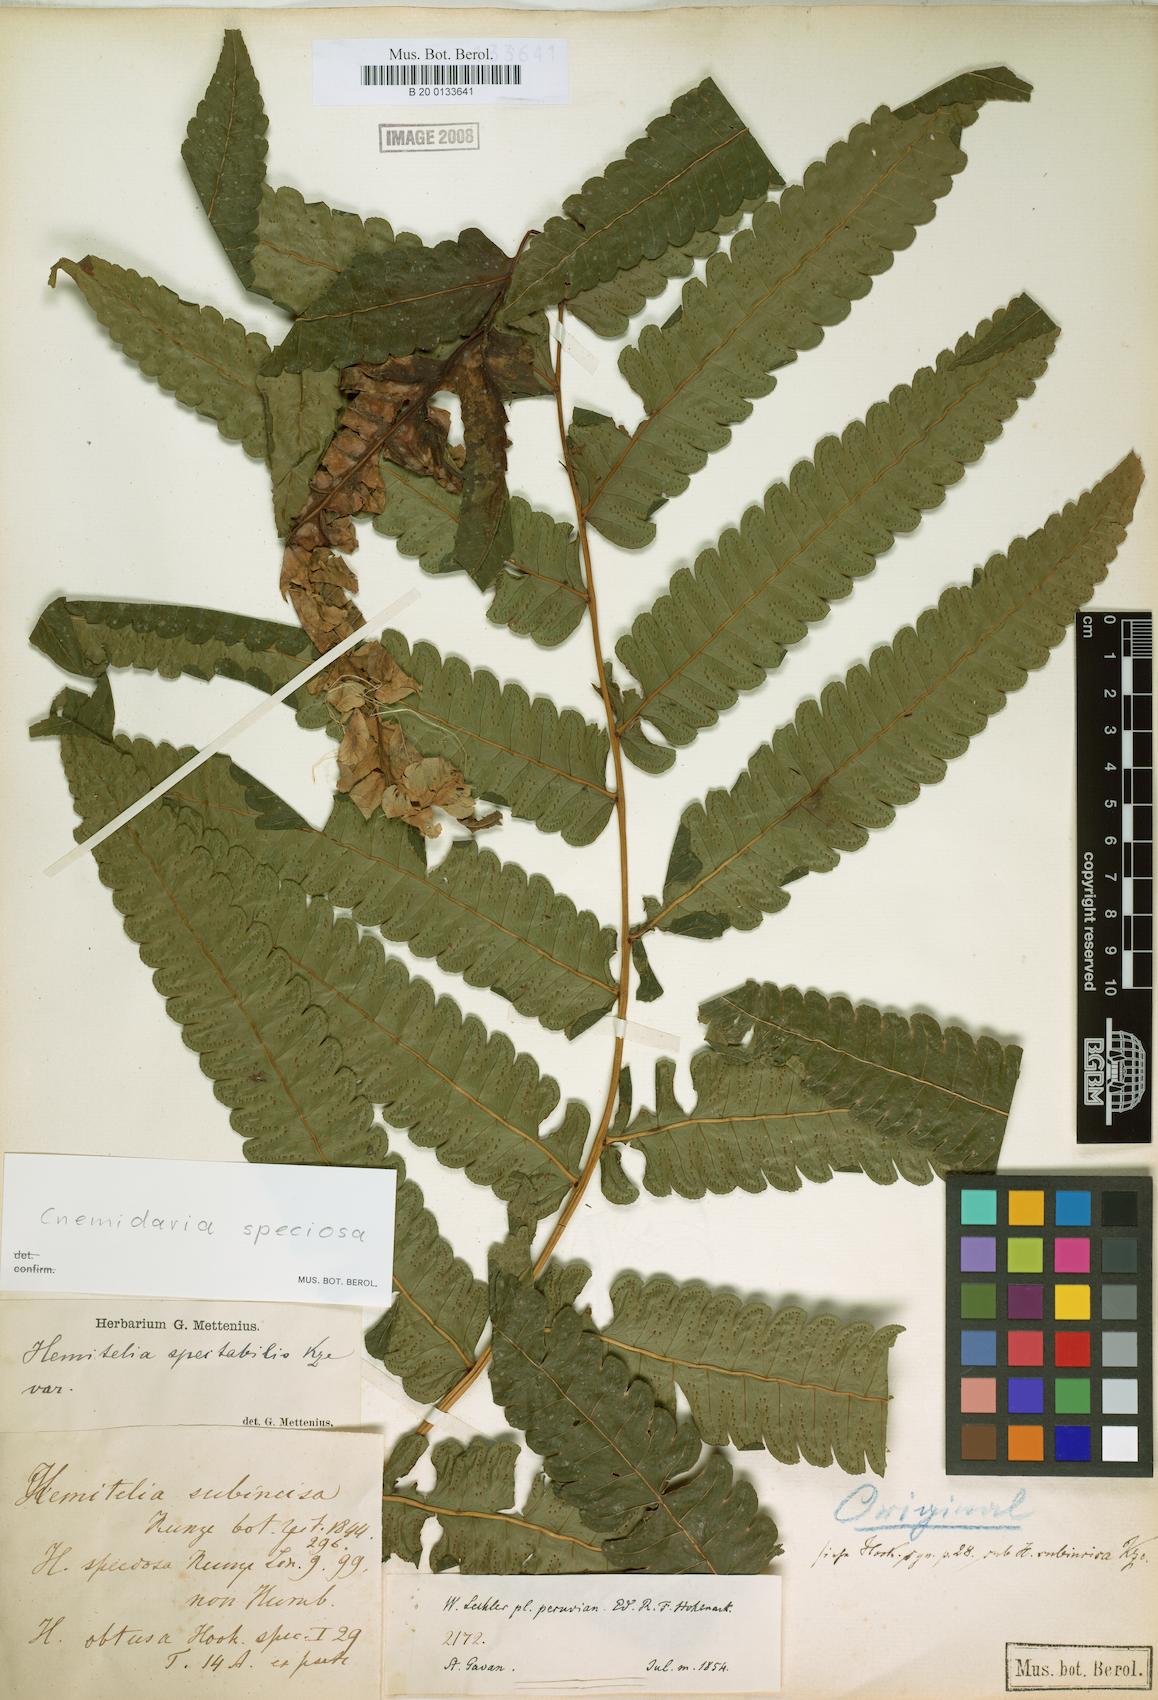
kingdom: Plantae
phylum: Tracheophyta
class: Polypodiopsida
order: Cyatheales
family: Cyatheaceae
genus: Cyathea
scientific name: Cyathea subincisa
